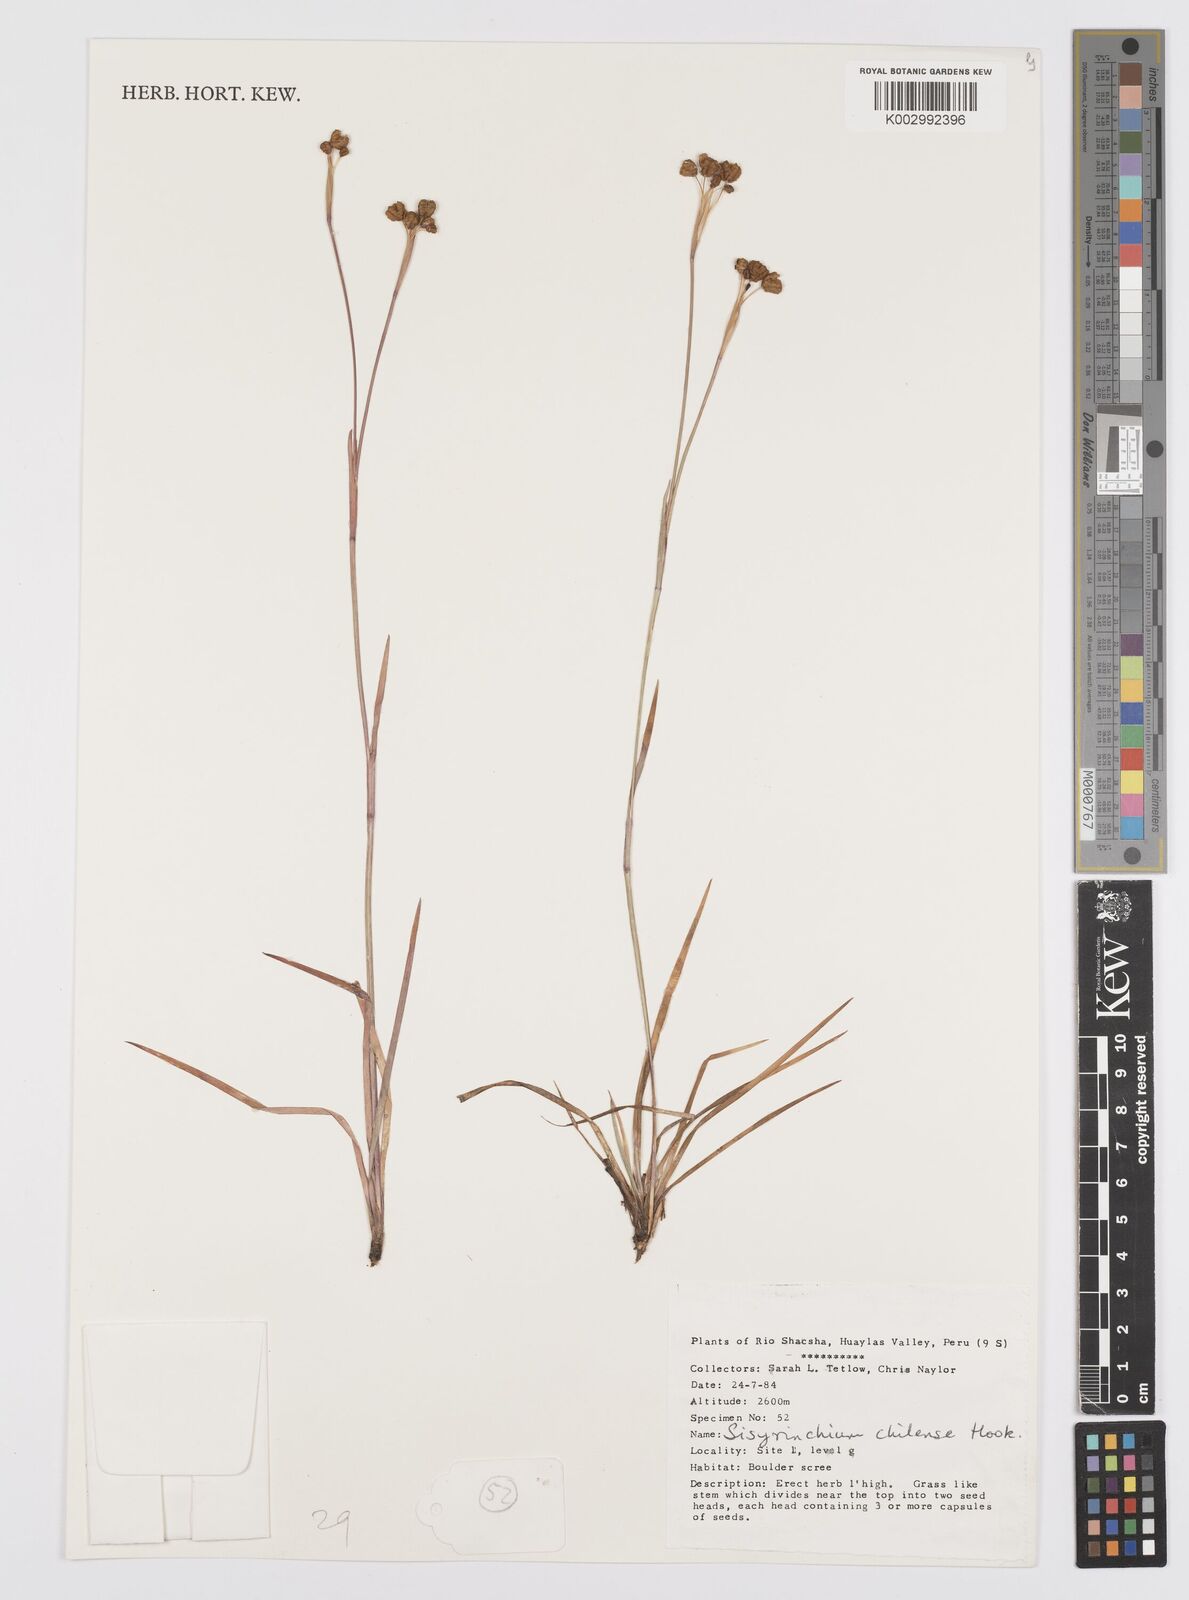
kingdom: Plantae
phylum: Tracheophyta
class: Liliopsida
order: Asparagales
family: Iridaceae
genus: Sisyrinchium
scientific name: Sisyrinchium chilense
